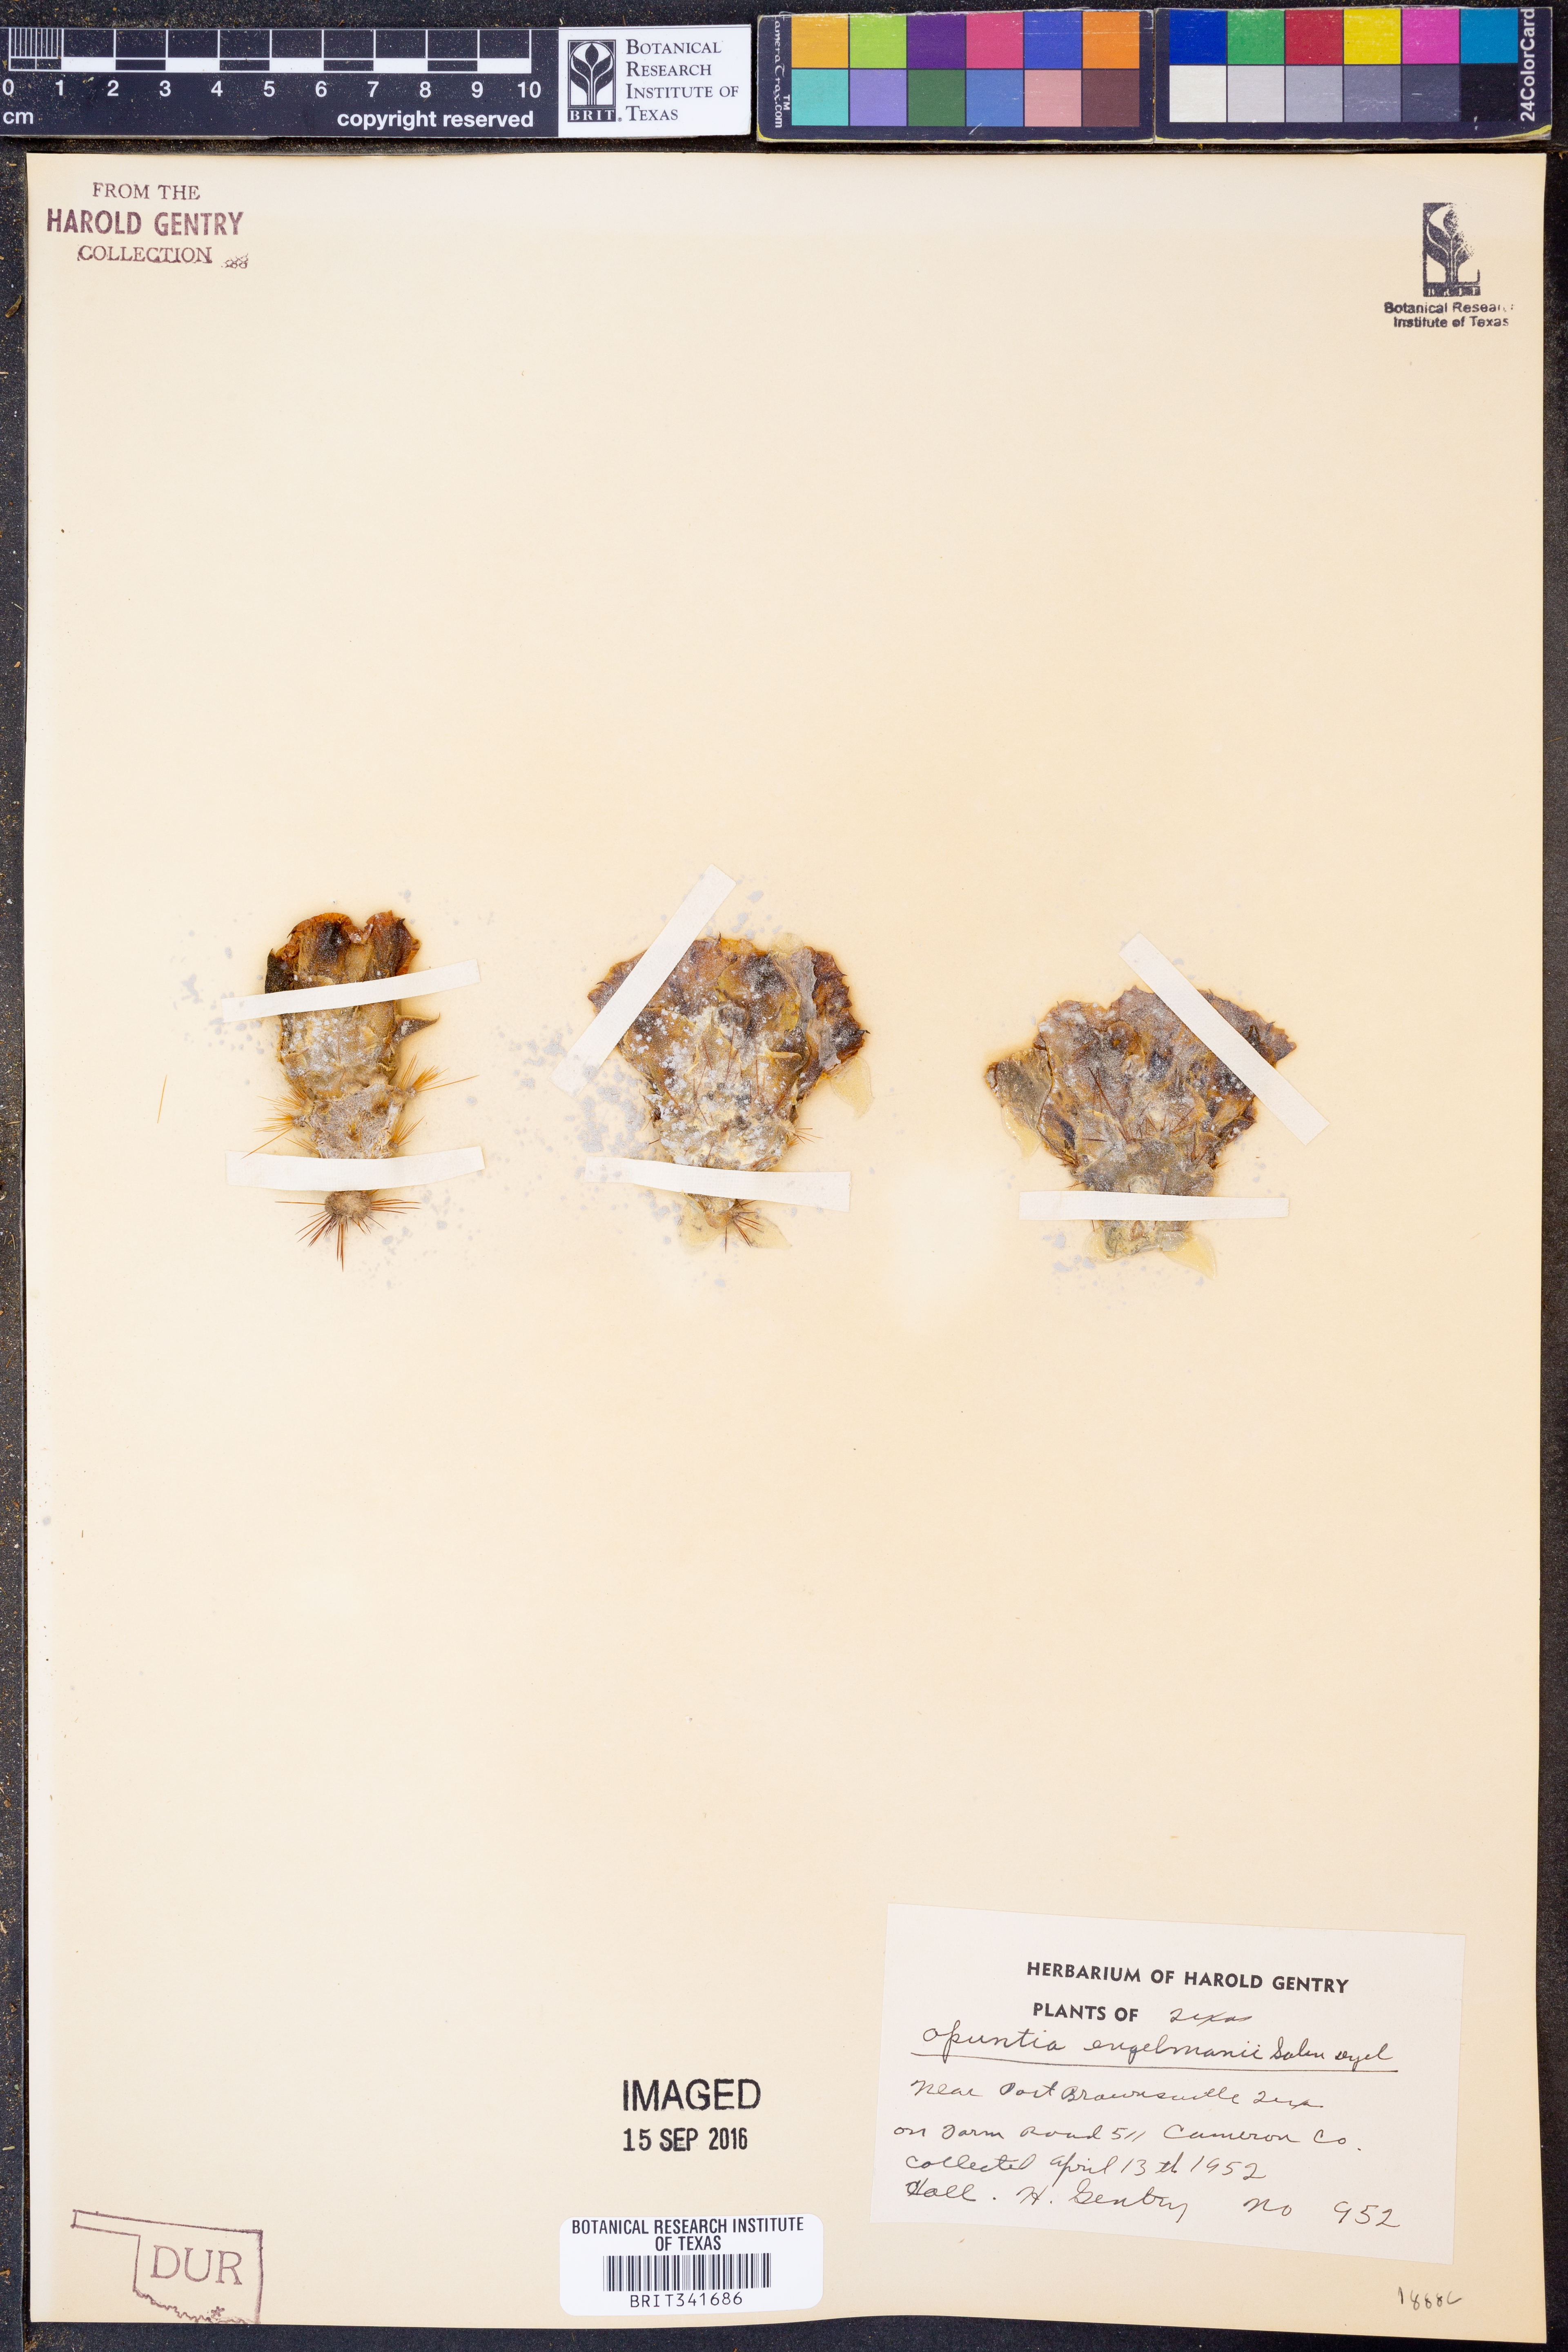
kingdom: Plantae
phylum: Tracheophyta
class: Magnoliopsida
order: Caryophyllales
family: Cactaceae
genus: Opuntia
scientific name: Opuntia engelmannii
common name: Cactus-apple
